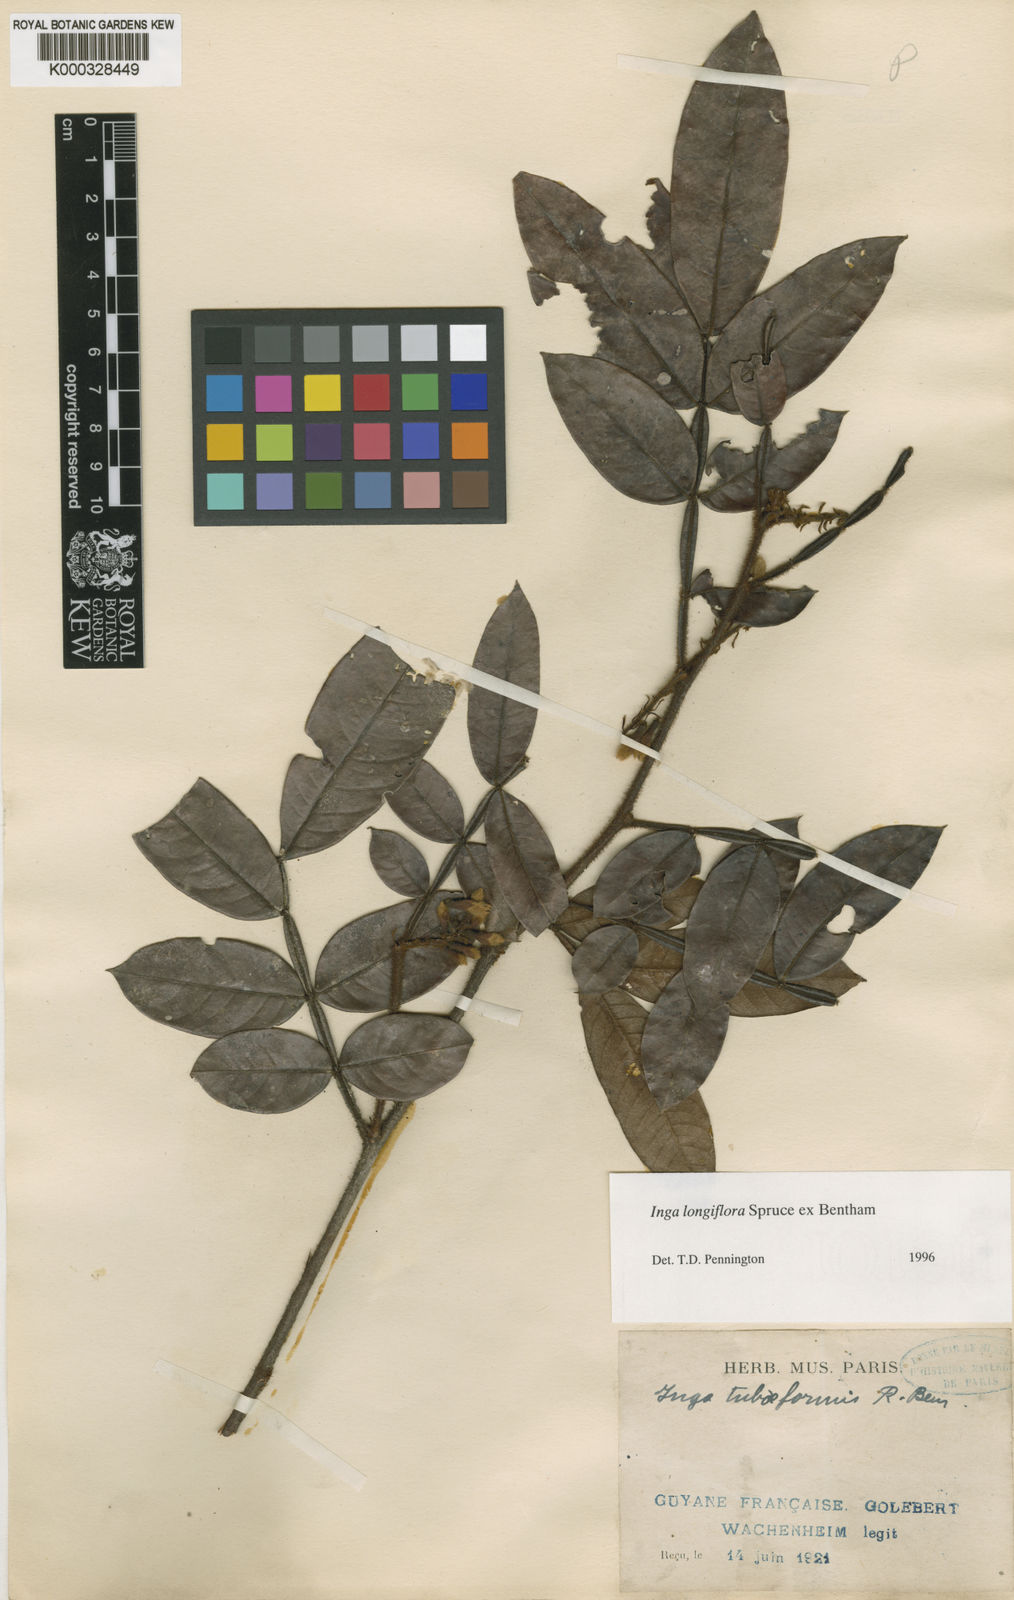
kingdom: Plantae
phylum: Tracheophyta
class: Magnoliopsida
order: Fabales
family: Fabaceae
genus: Inga
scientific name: Inga longiflora
